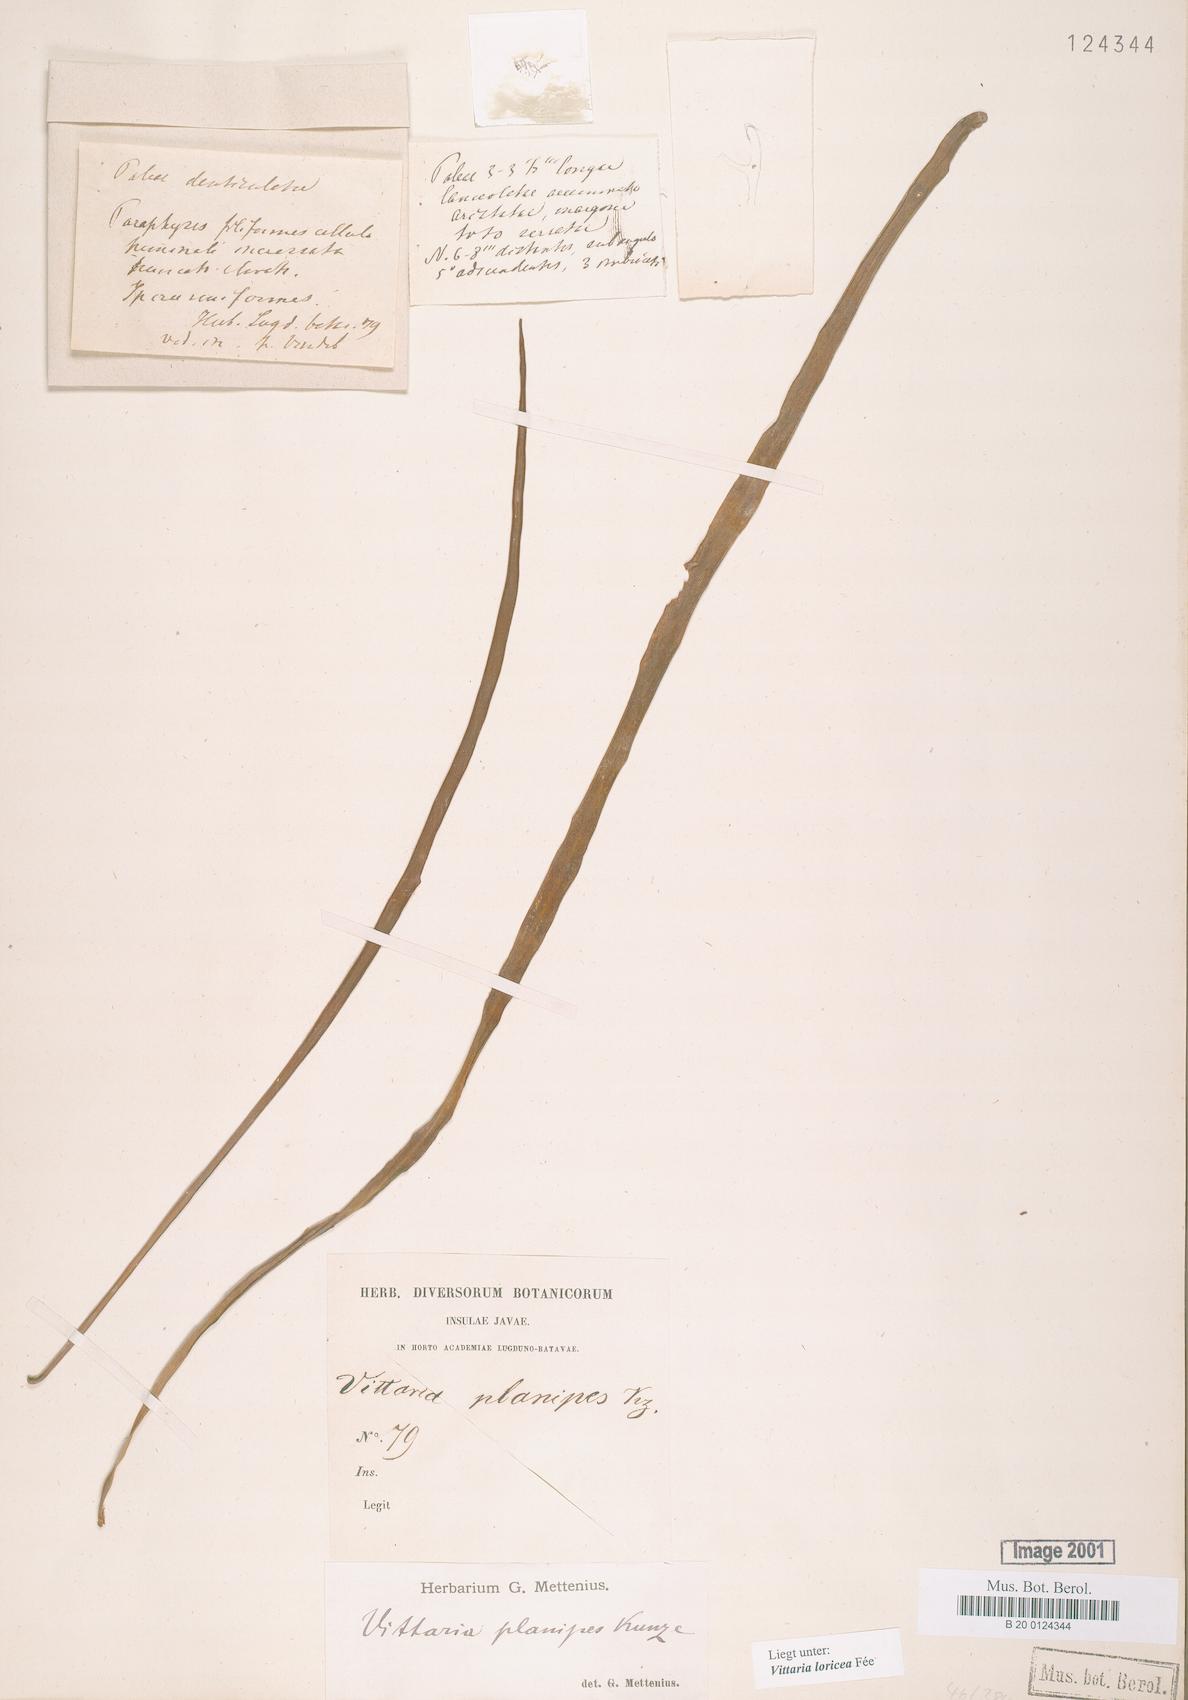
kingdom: Plantae
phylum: Tracheophyta
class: Polypodiopsida
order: Polypodiales
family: Pteridaceae
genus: Haplopteris
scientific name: Haplopteris zosterifolia
